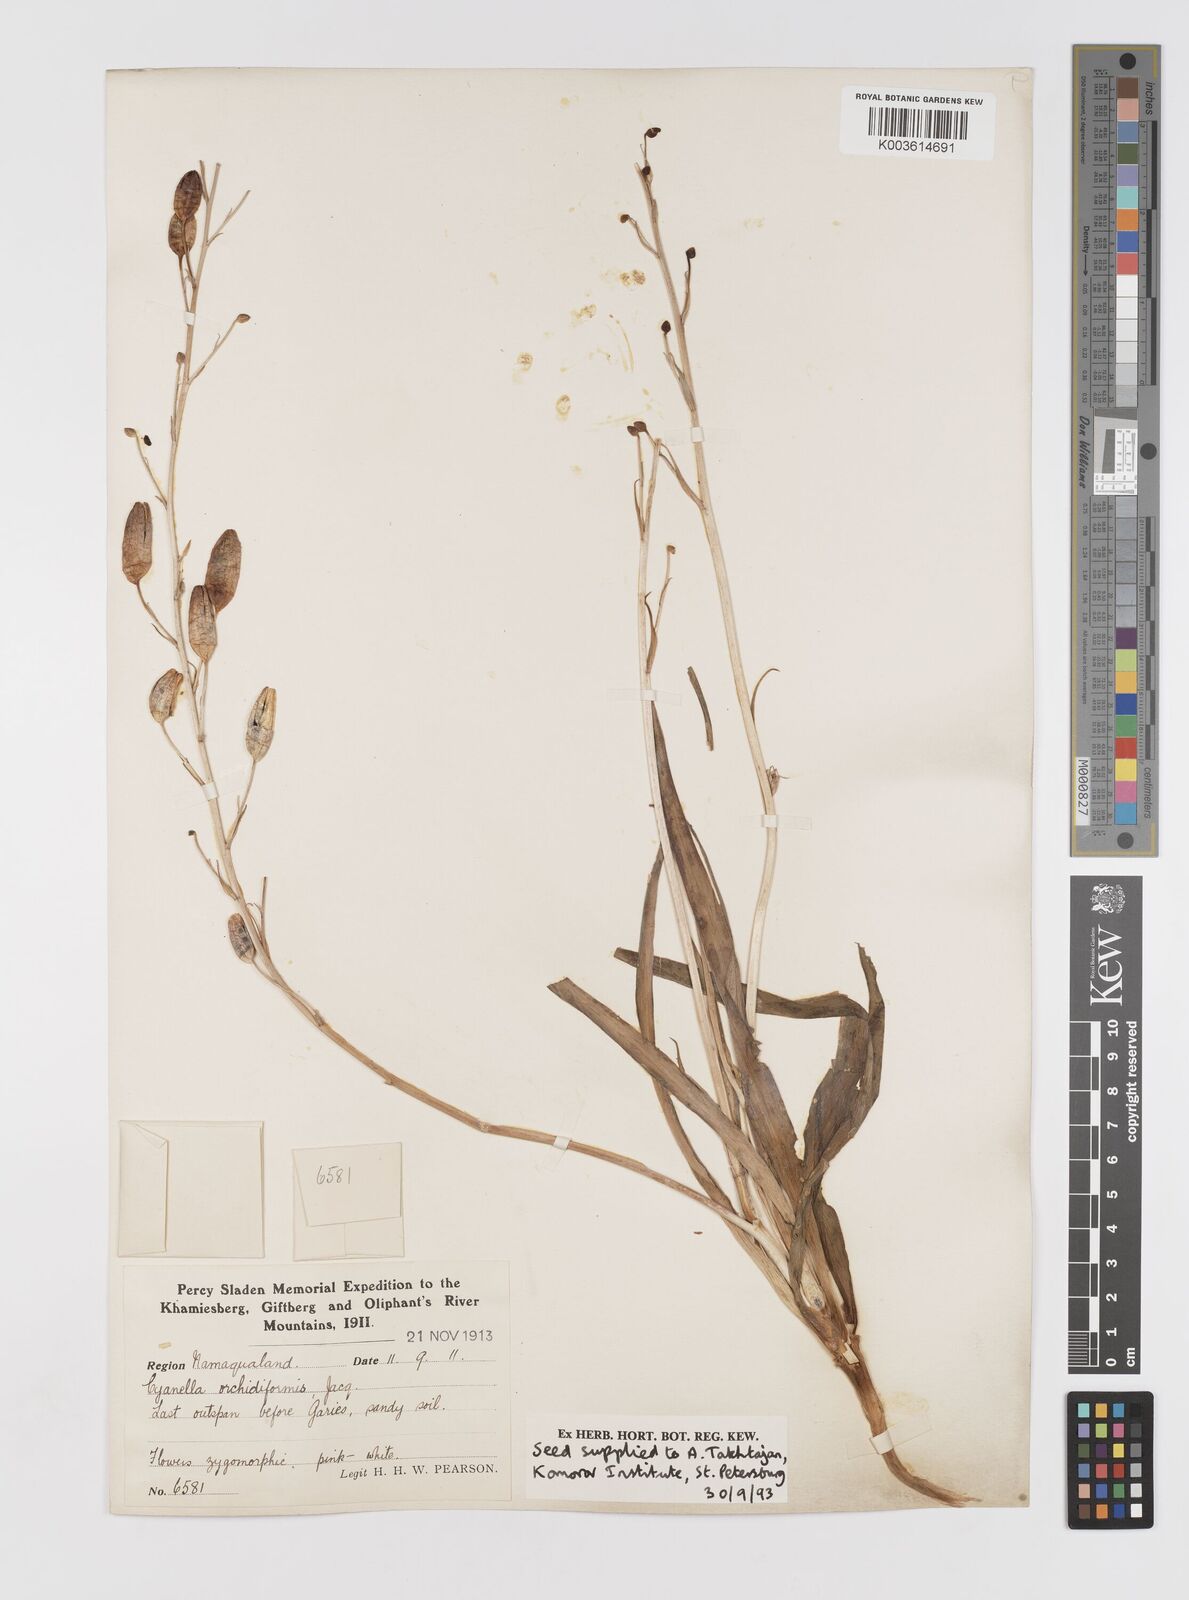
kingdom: Plantae
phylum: Tracheophyta
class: Liliopsida
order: Asparagales
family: Tecophilaeaceae
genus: Cyanella
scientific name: Cyanella orchidiformis
